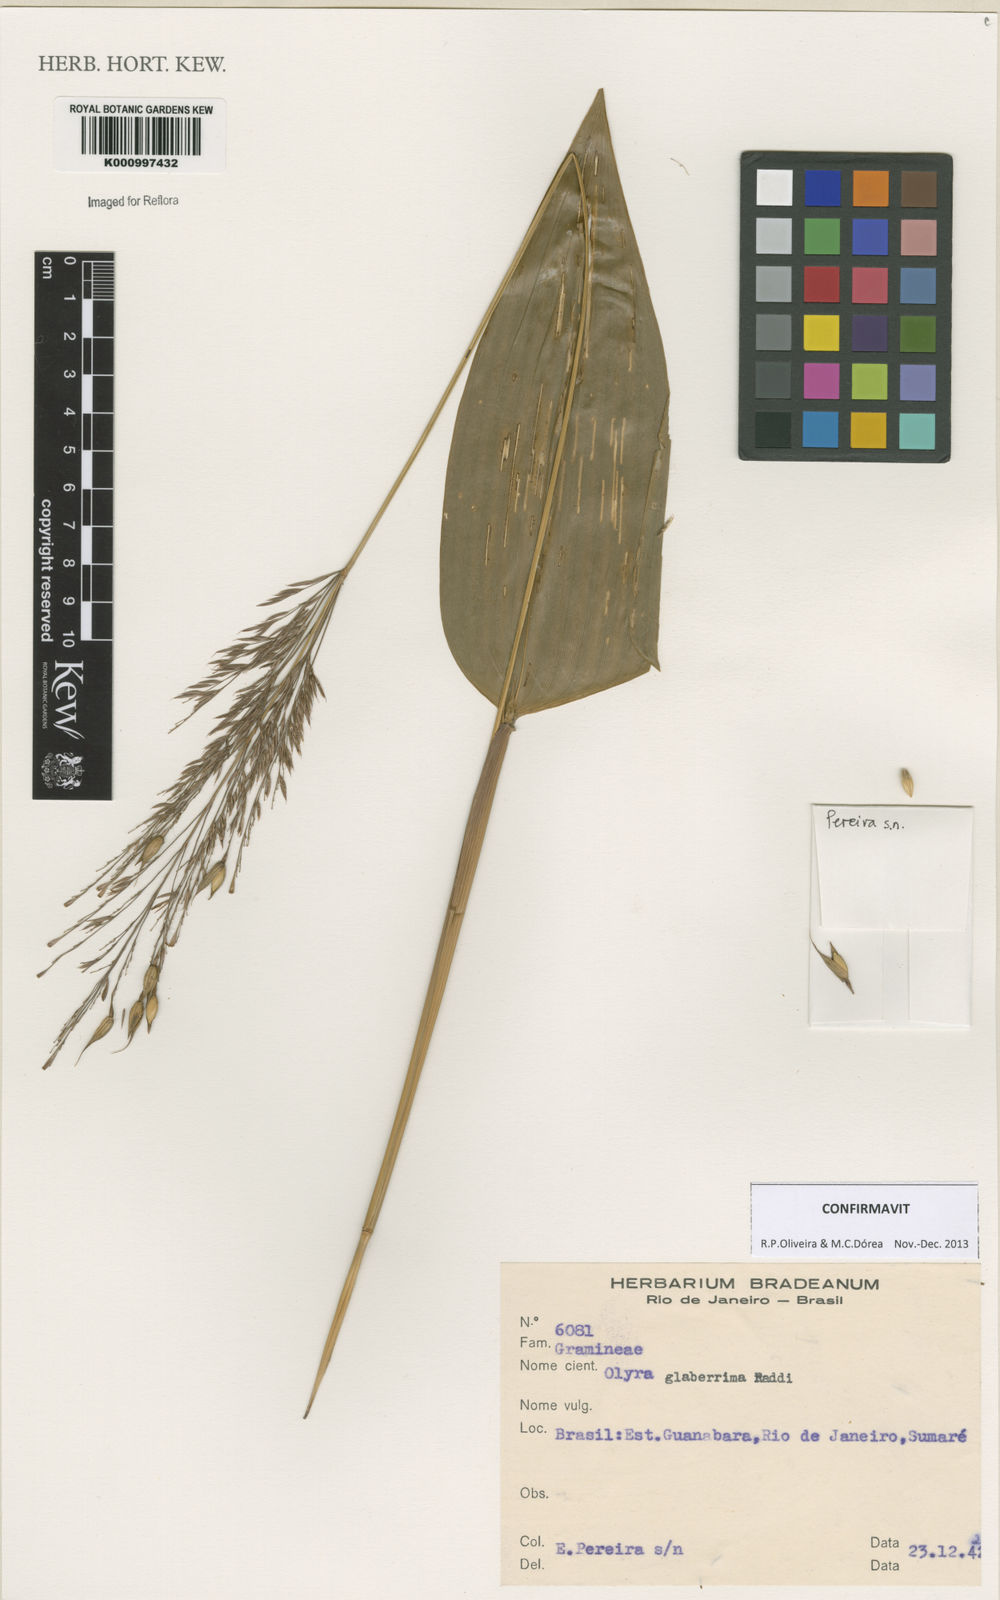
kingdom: Plantae
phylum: Tracheophyta
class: Liliopsida
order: Poales
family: Poaceae
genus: Olyra
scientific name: Olyra glaberrima
